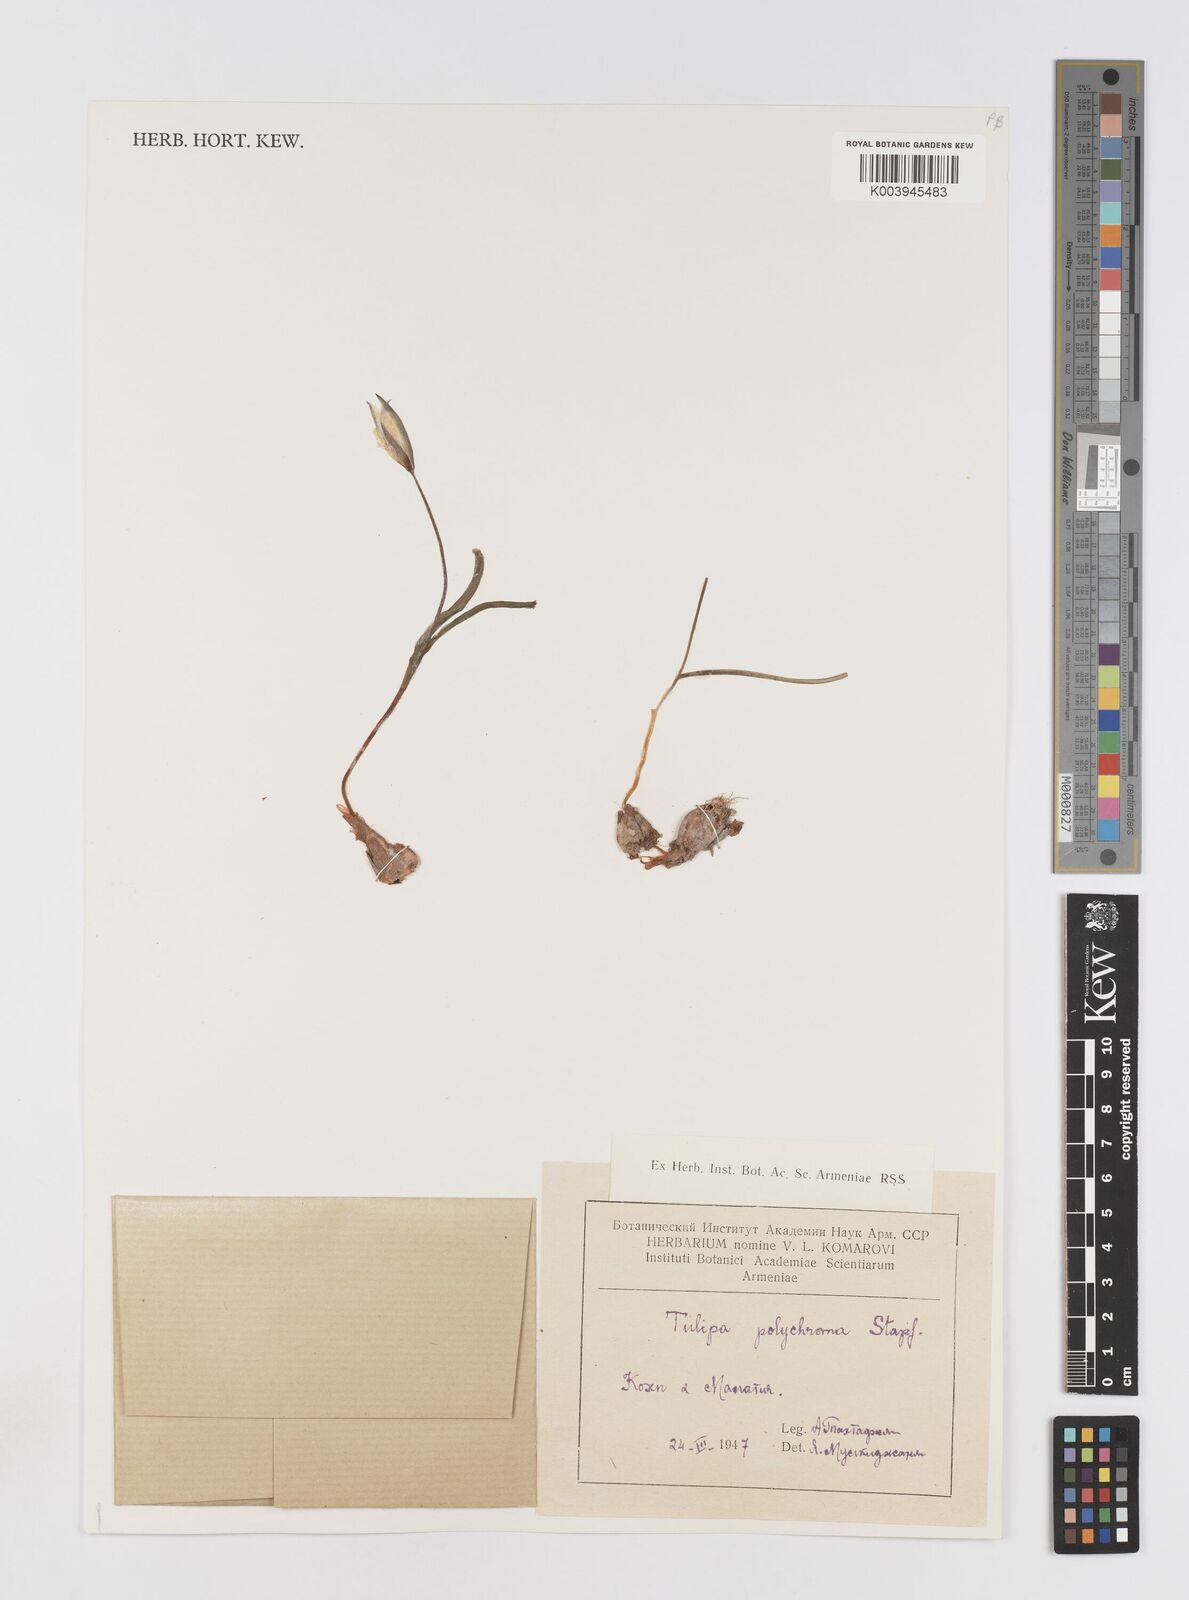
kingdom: Plantae
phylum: Tracheophyta
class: Liliopsida
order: Liliales
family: Liliaceae
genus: Tulipa
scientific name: Tulipa biflora
